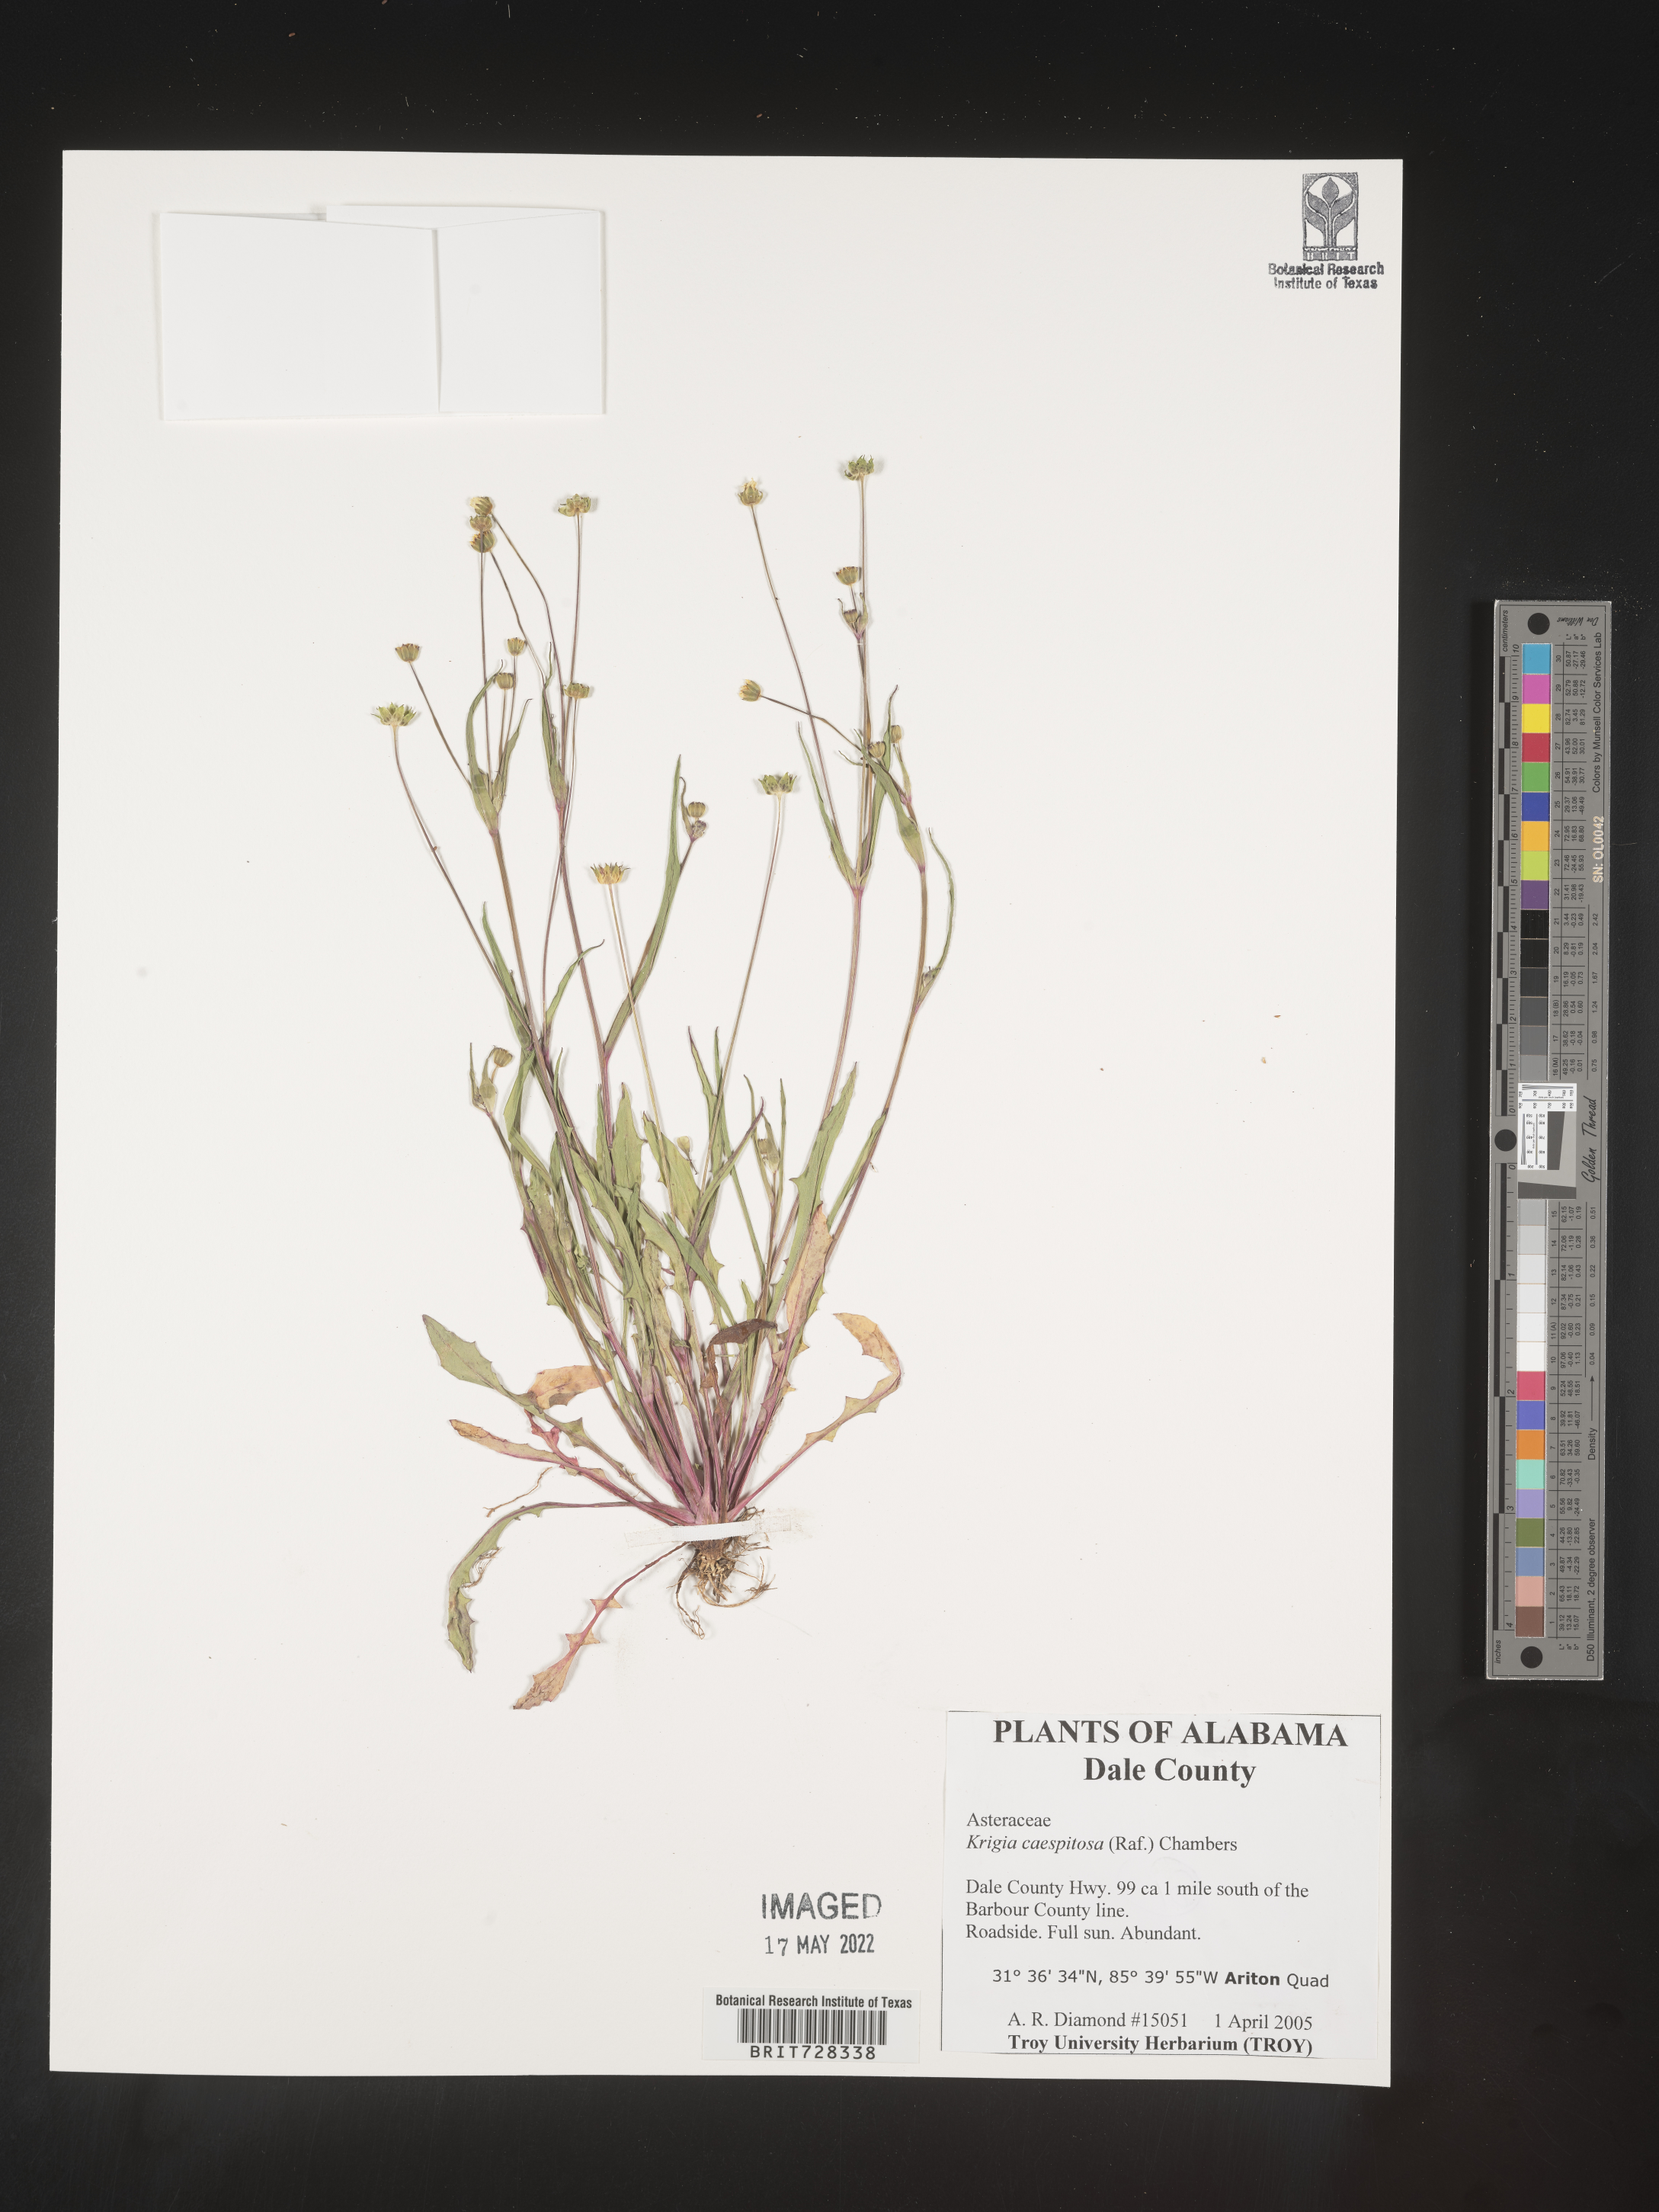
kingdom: Plantae
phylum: Tracheophyta
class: Magnoliopsida
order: Asterales
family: Asteraceae
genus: Krigia
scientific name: Krigia caespitosa
